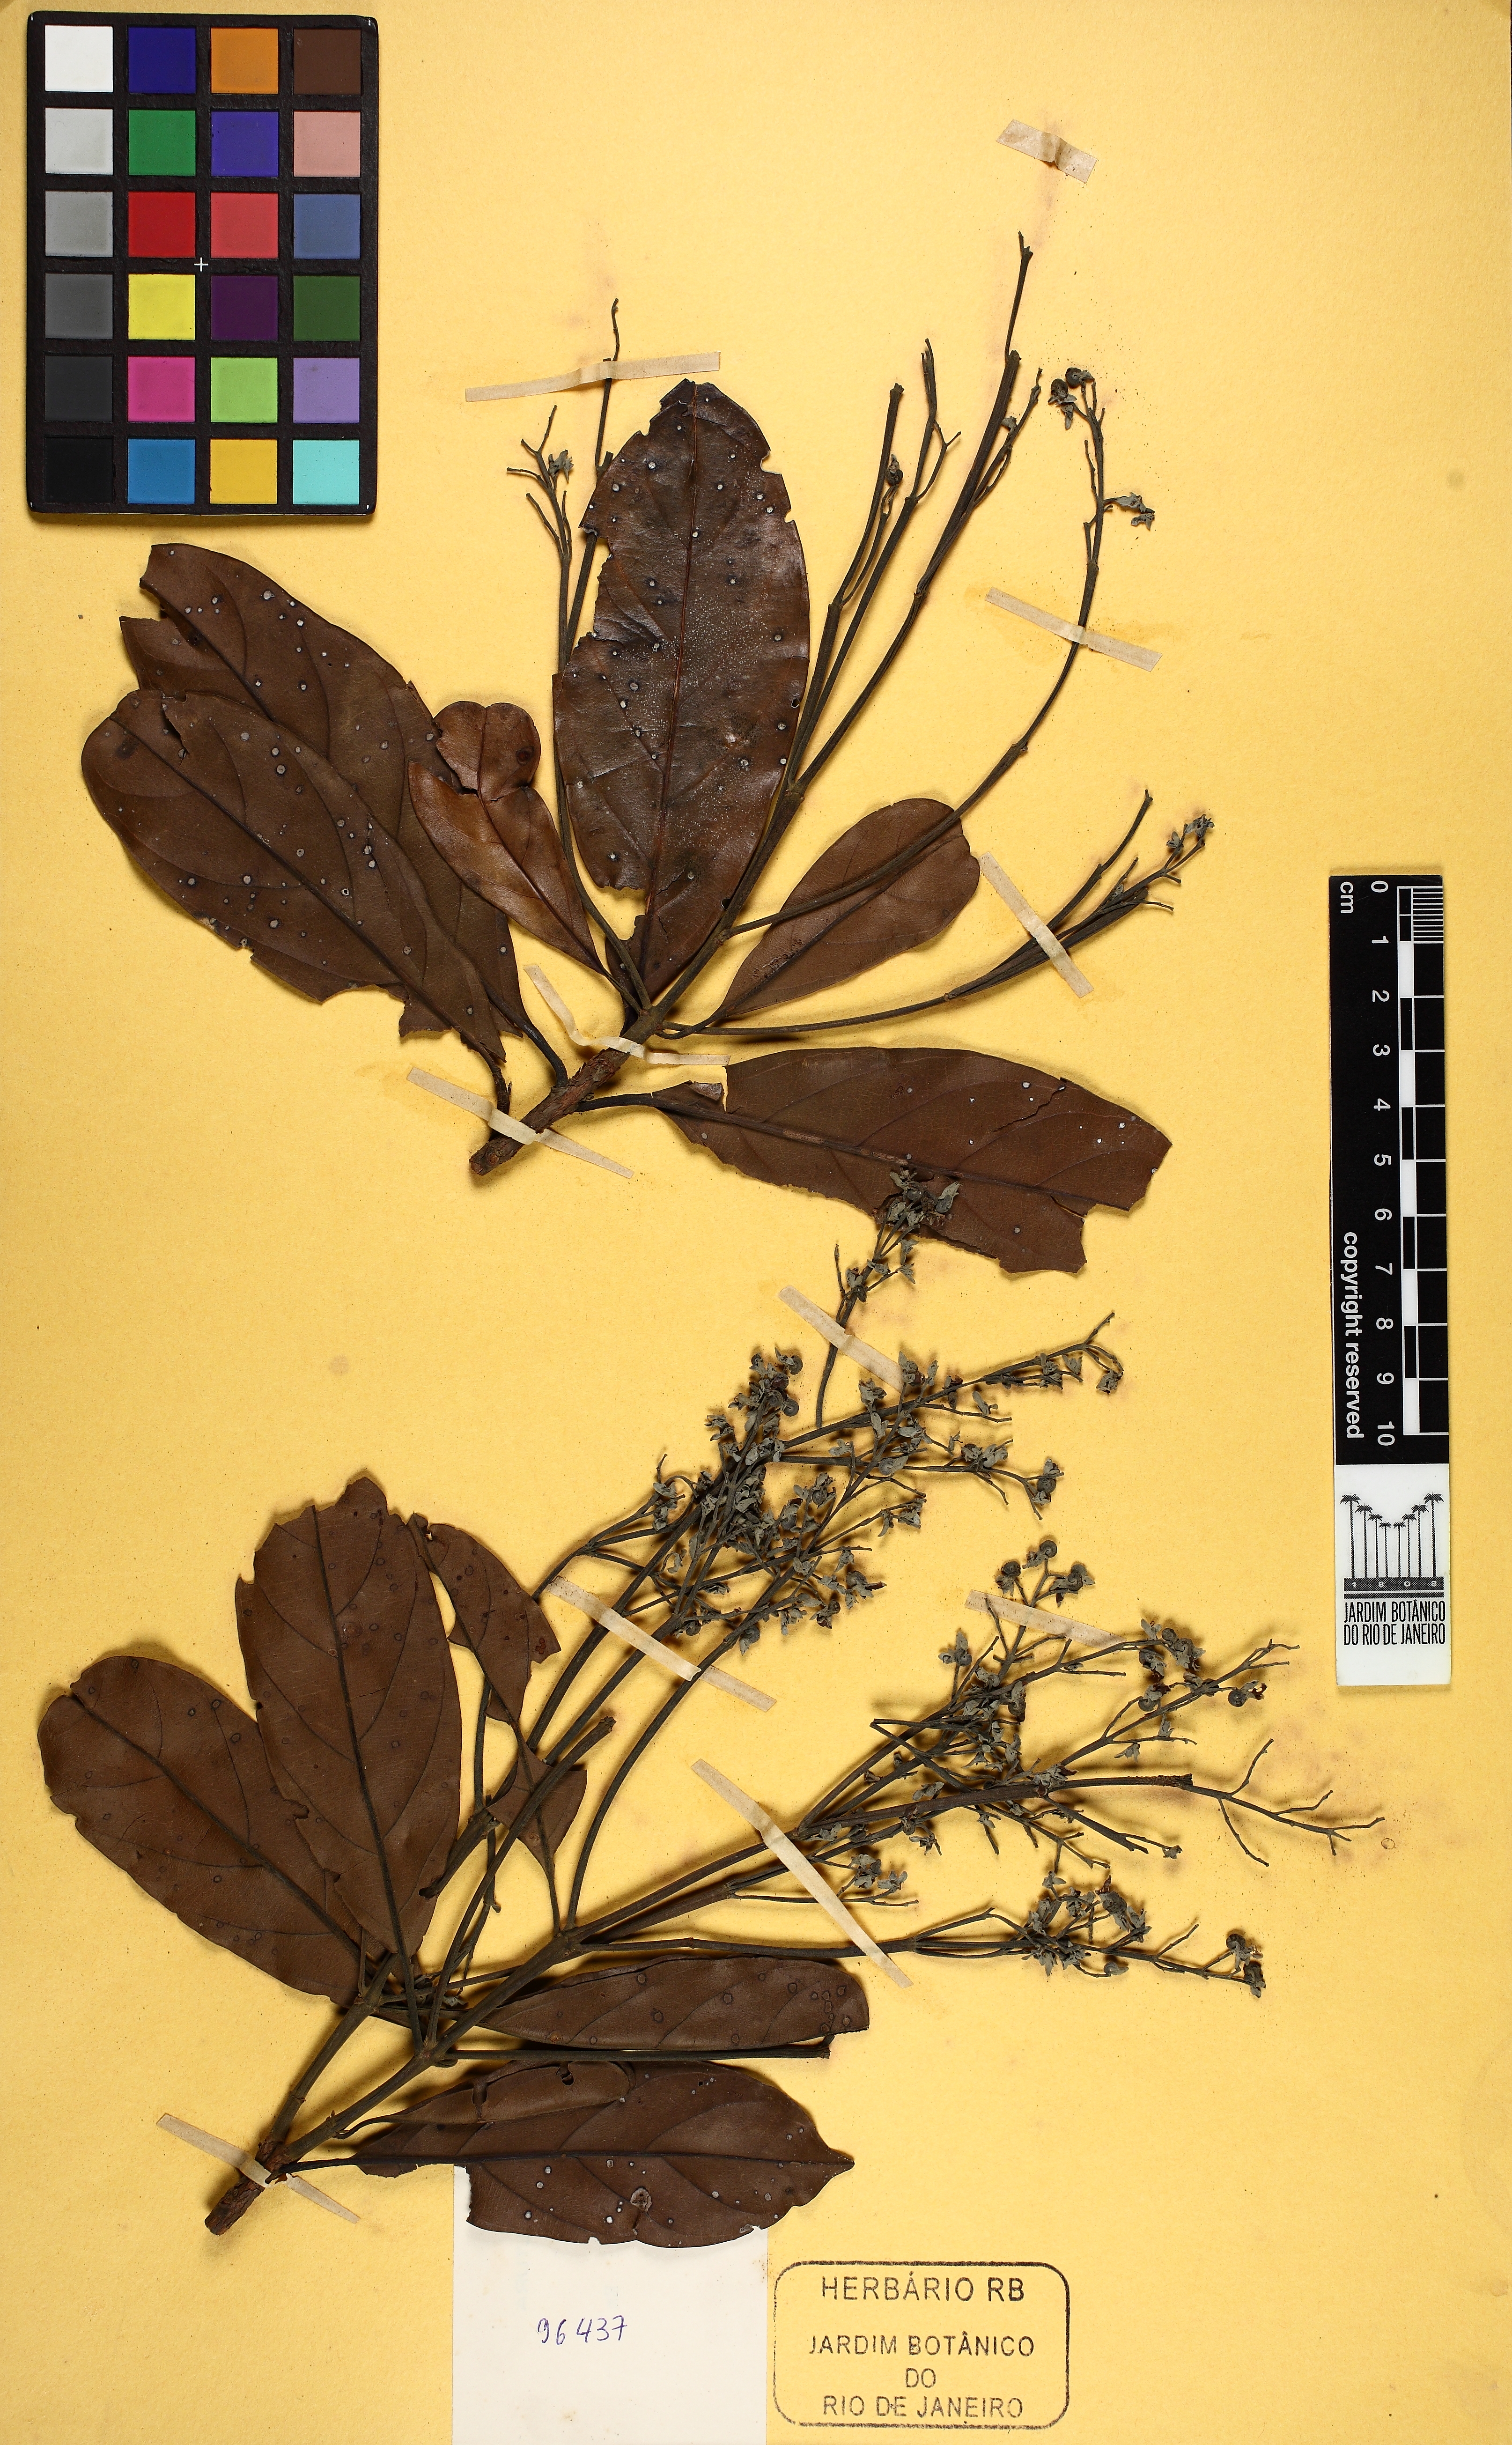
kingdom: Plantae
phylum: Tracheophyta
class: Magnoliopsida
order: Myrtales
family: Vochysiaceae
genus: Erisma
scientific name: Erisma uncinatum
